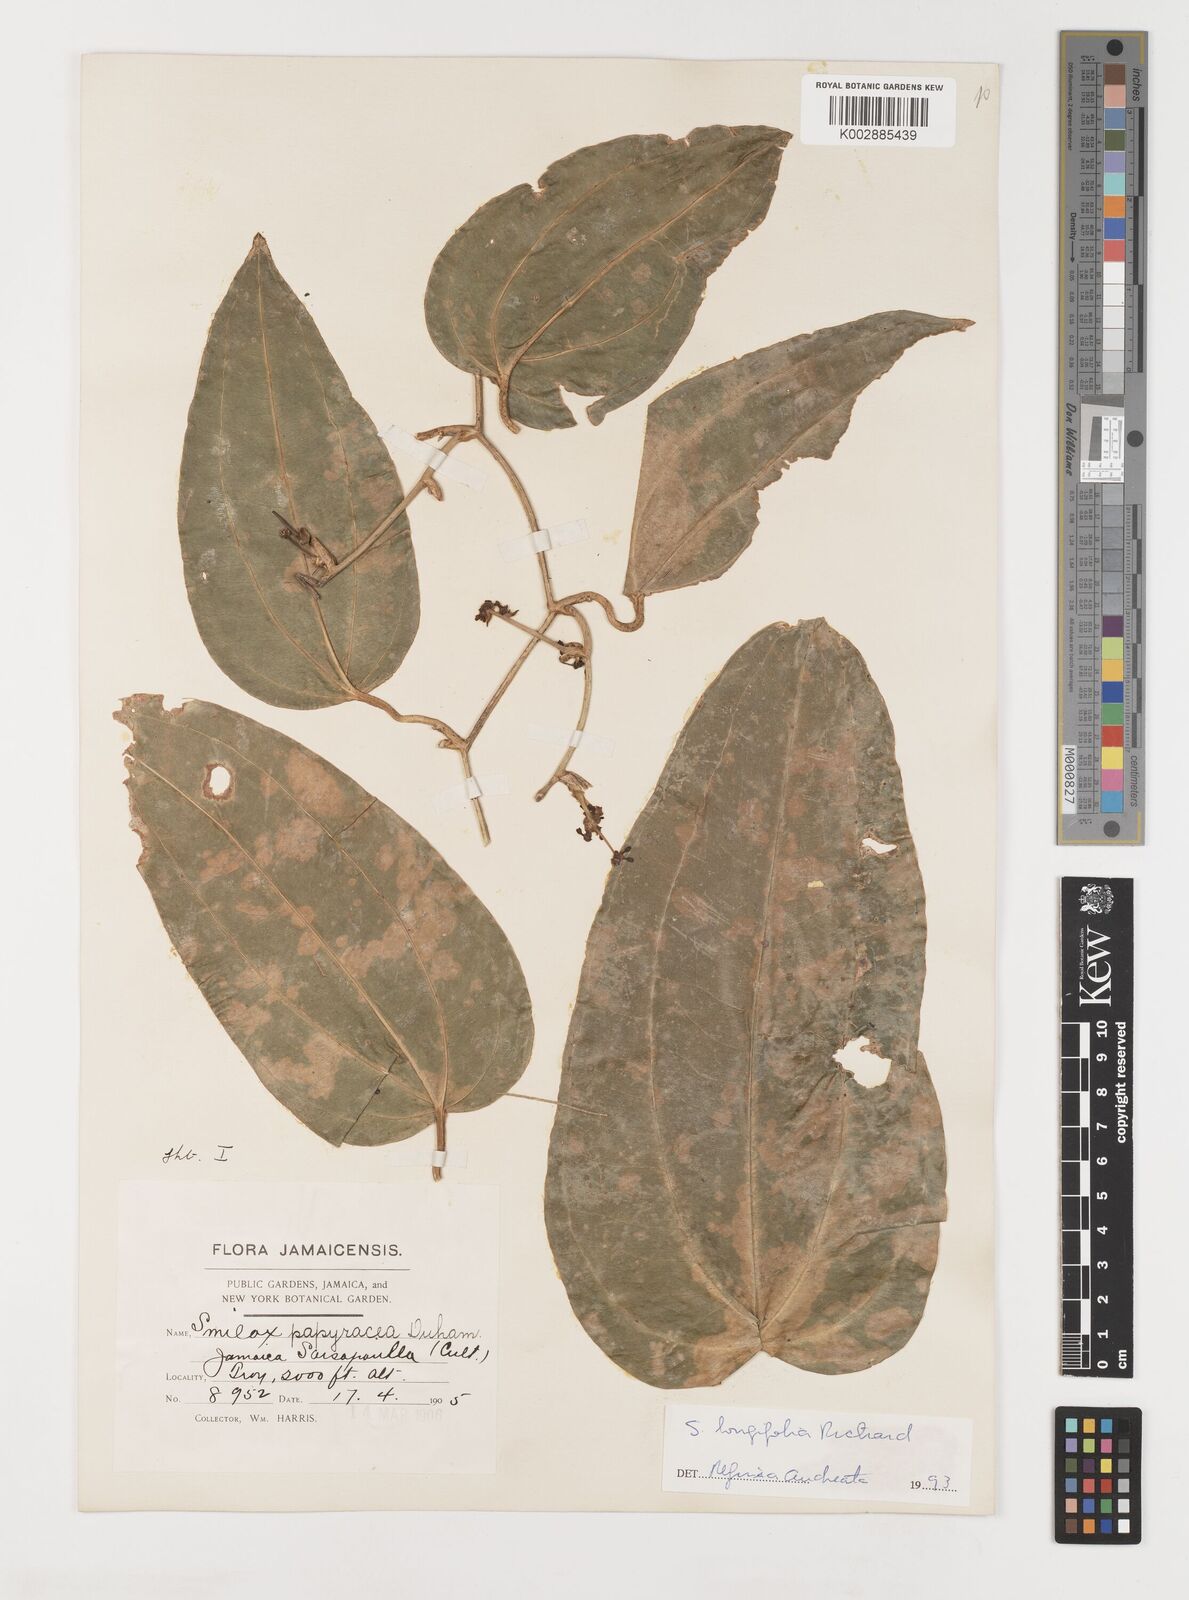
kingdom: Plantae
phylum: Tracheophyta
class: Liliopsida
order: Liliales
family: Smilacaceae
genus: Smilax
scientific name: Smilax longifolia
